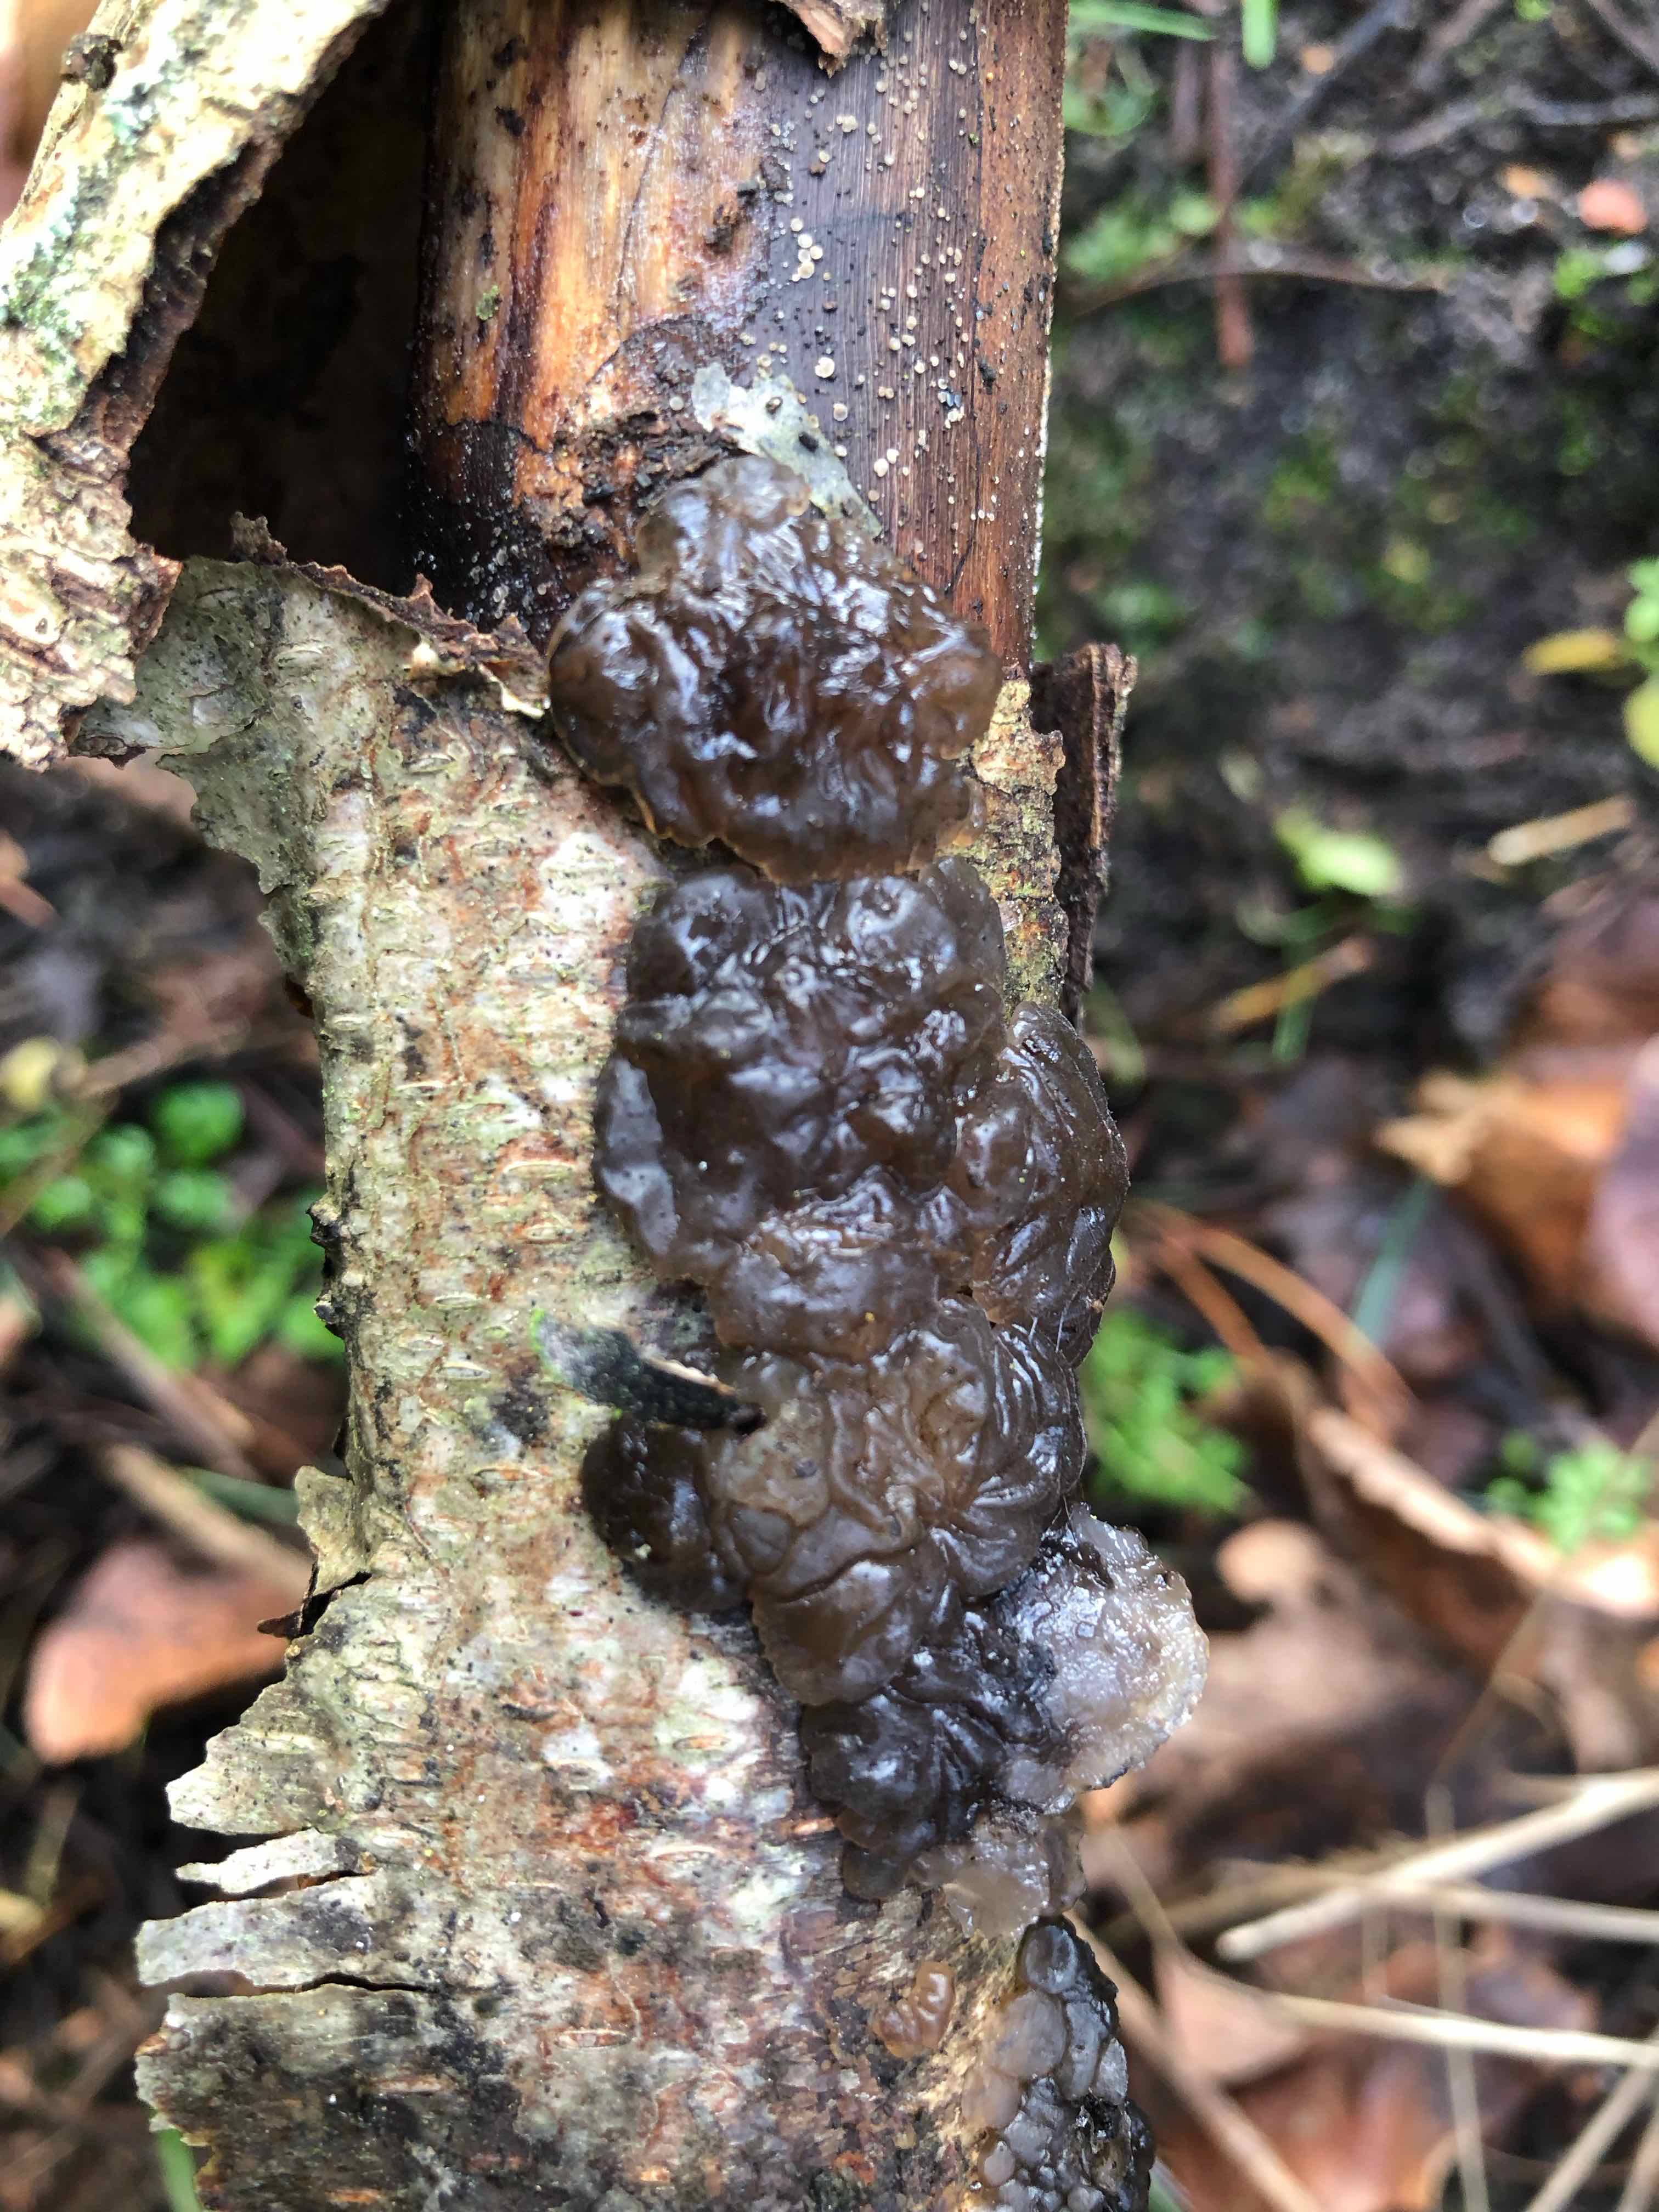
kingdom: Fungi
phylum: Basidiomycota
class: Agaricomycetes
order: Auriculariales
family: Auriculariaceae
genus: Exidia
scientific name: Exidia nigricans
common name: almindelig bævretop
